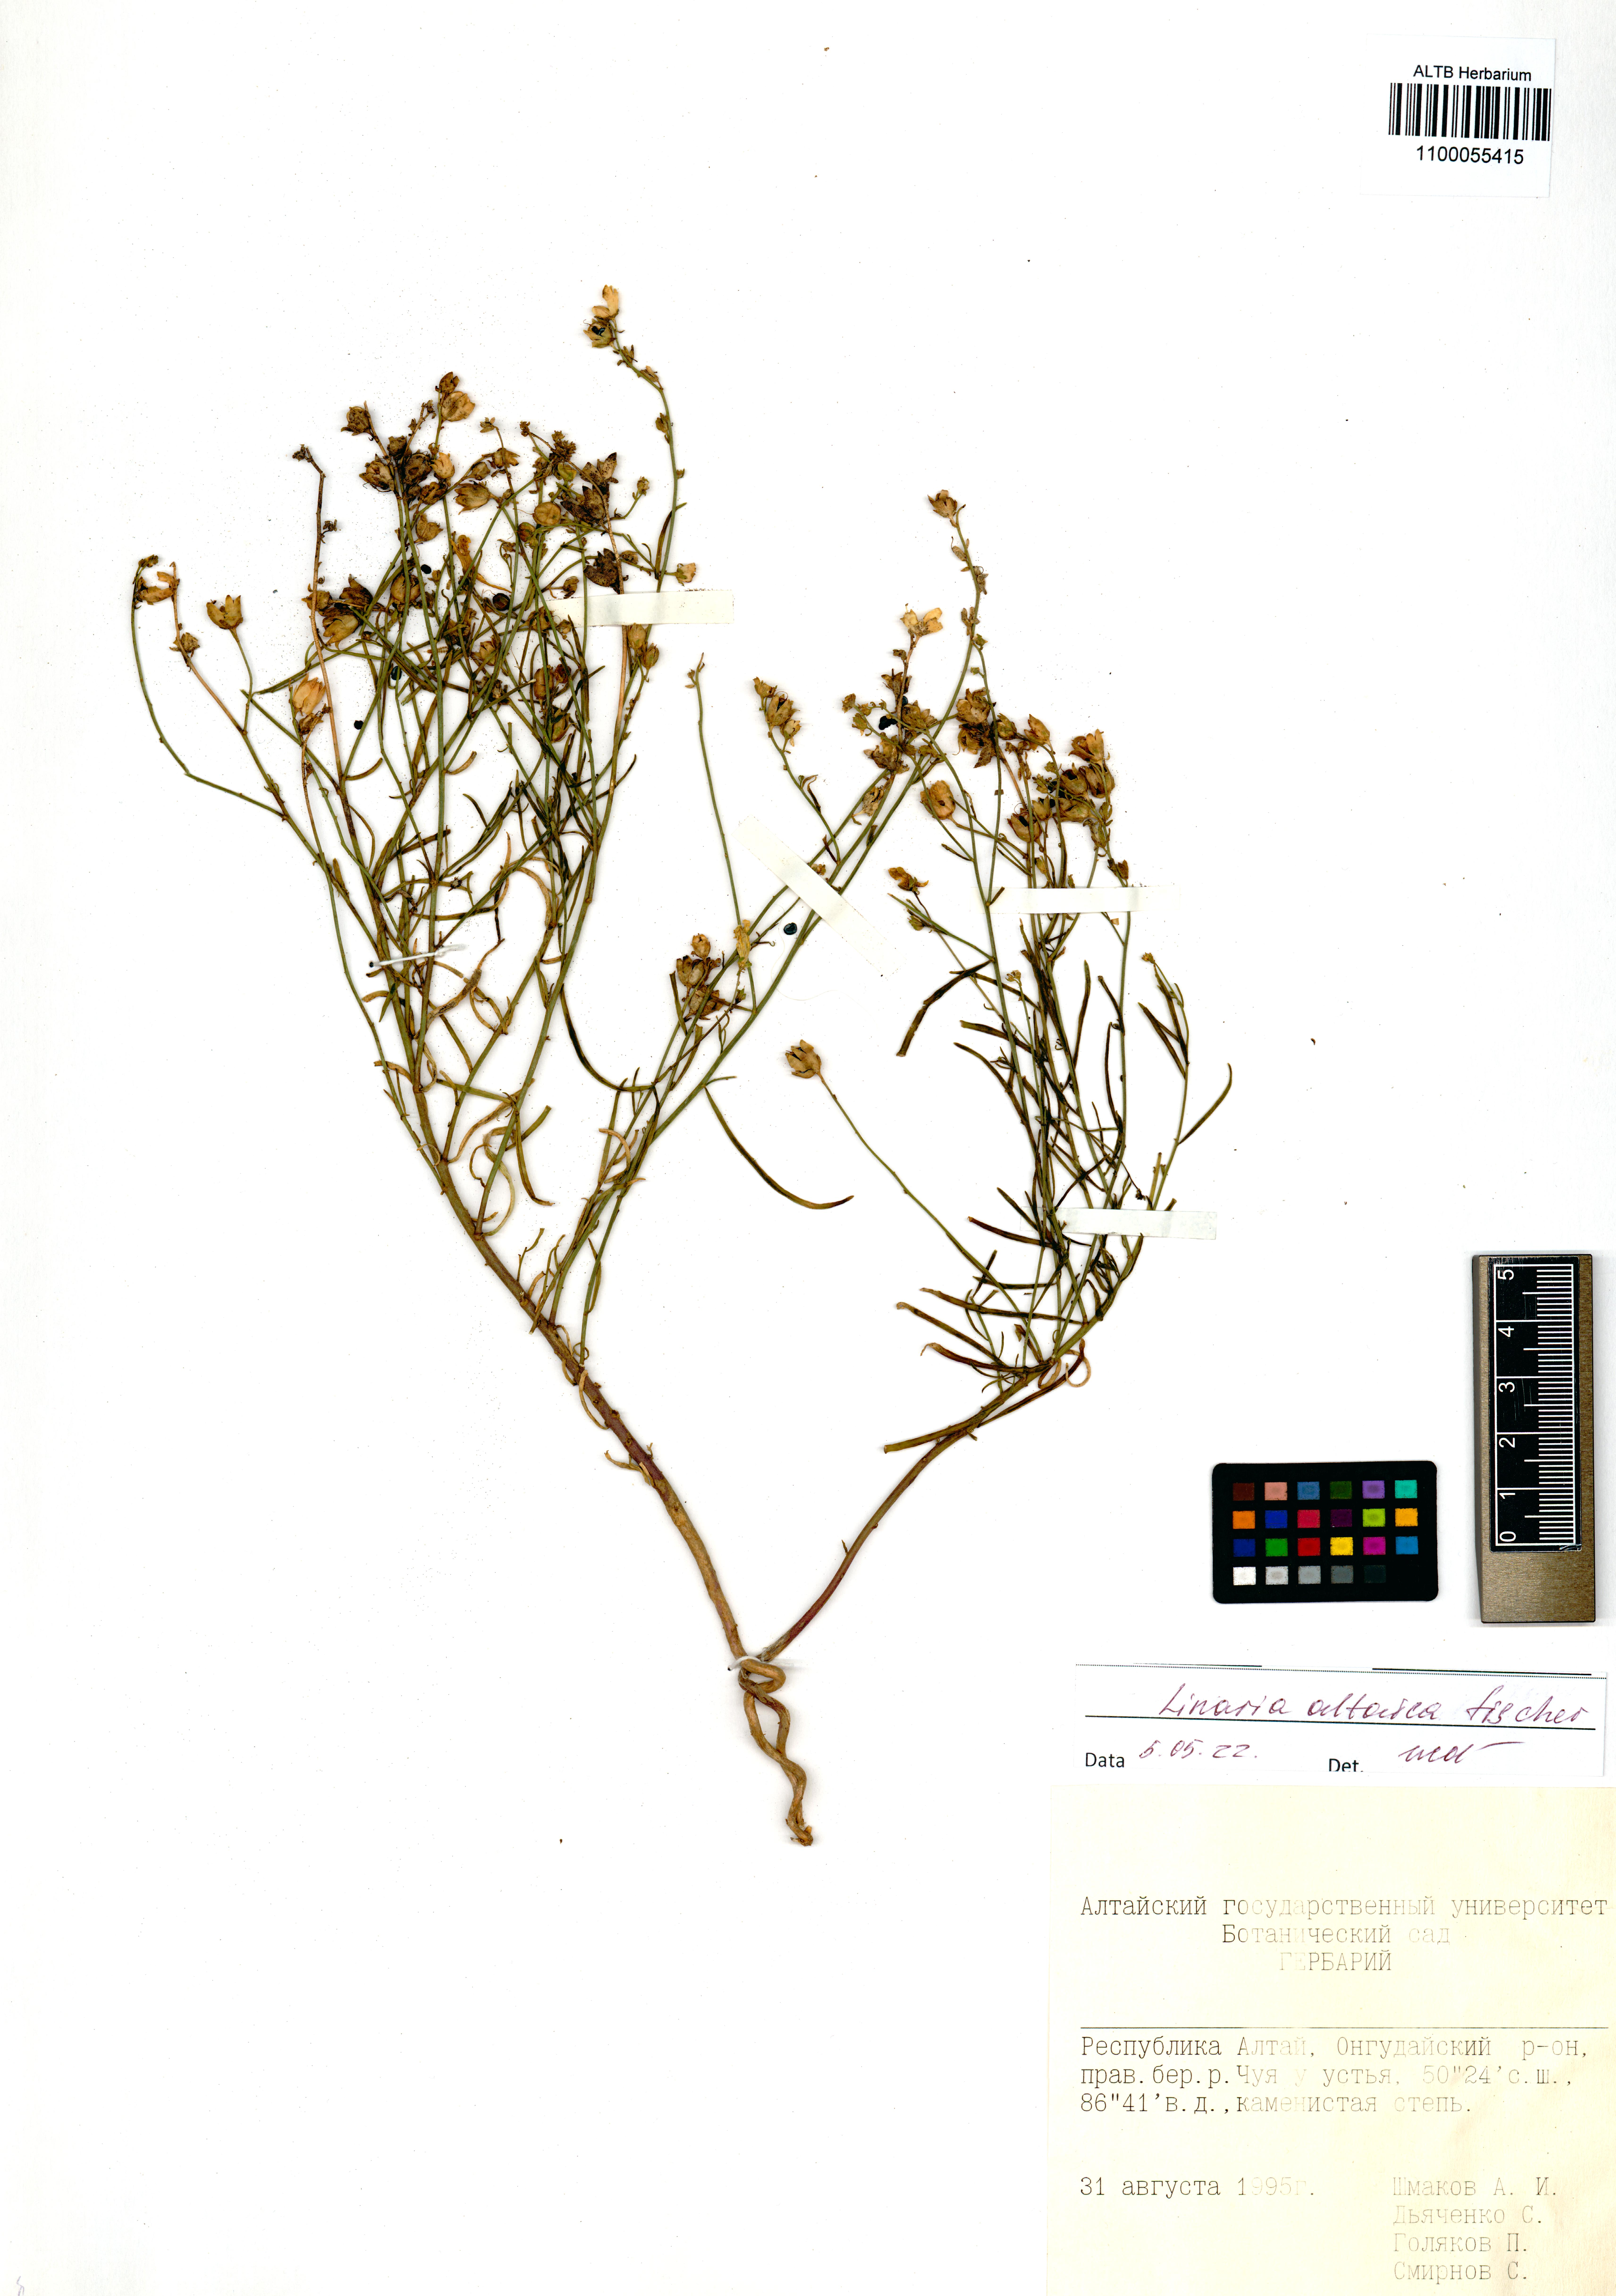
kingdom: Plantae
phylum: Tracheophyta
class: Magnoliopsida
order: Lamiales
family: Plantaginaceae
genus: Linaria
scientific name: Linaria altaica
